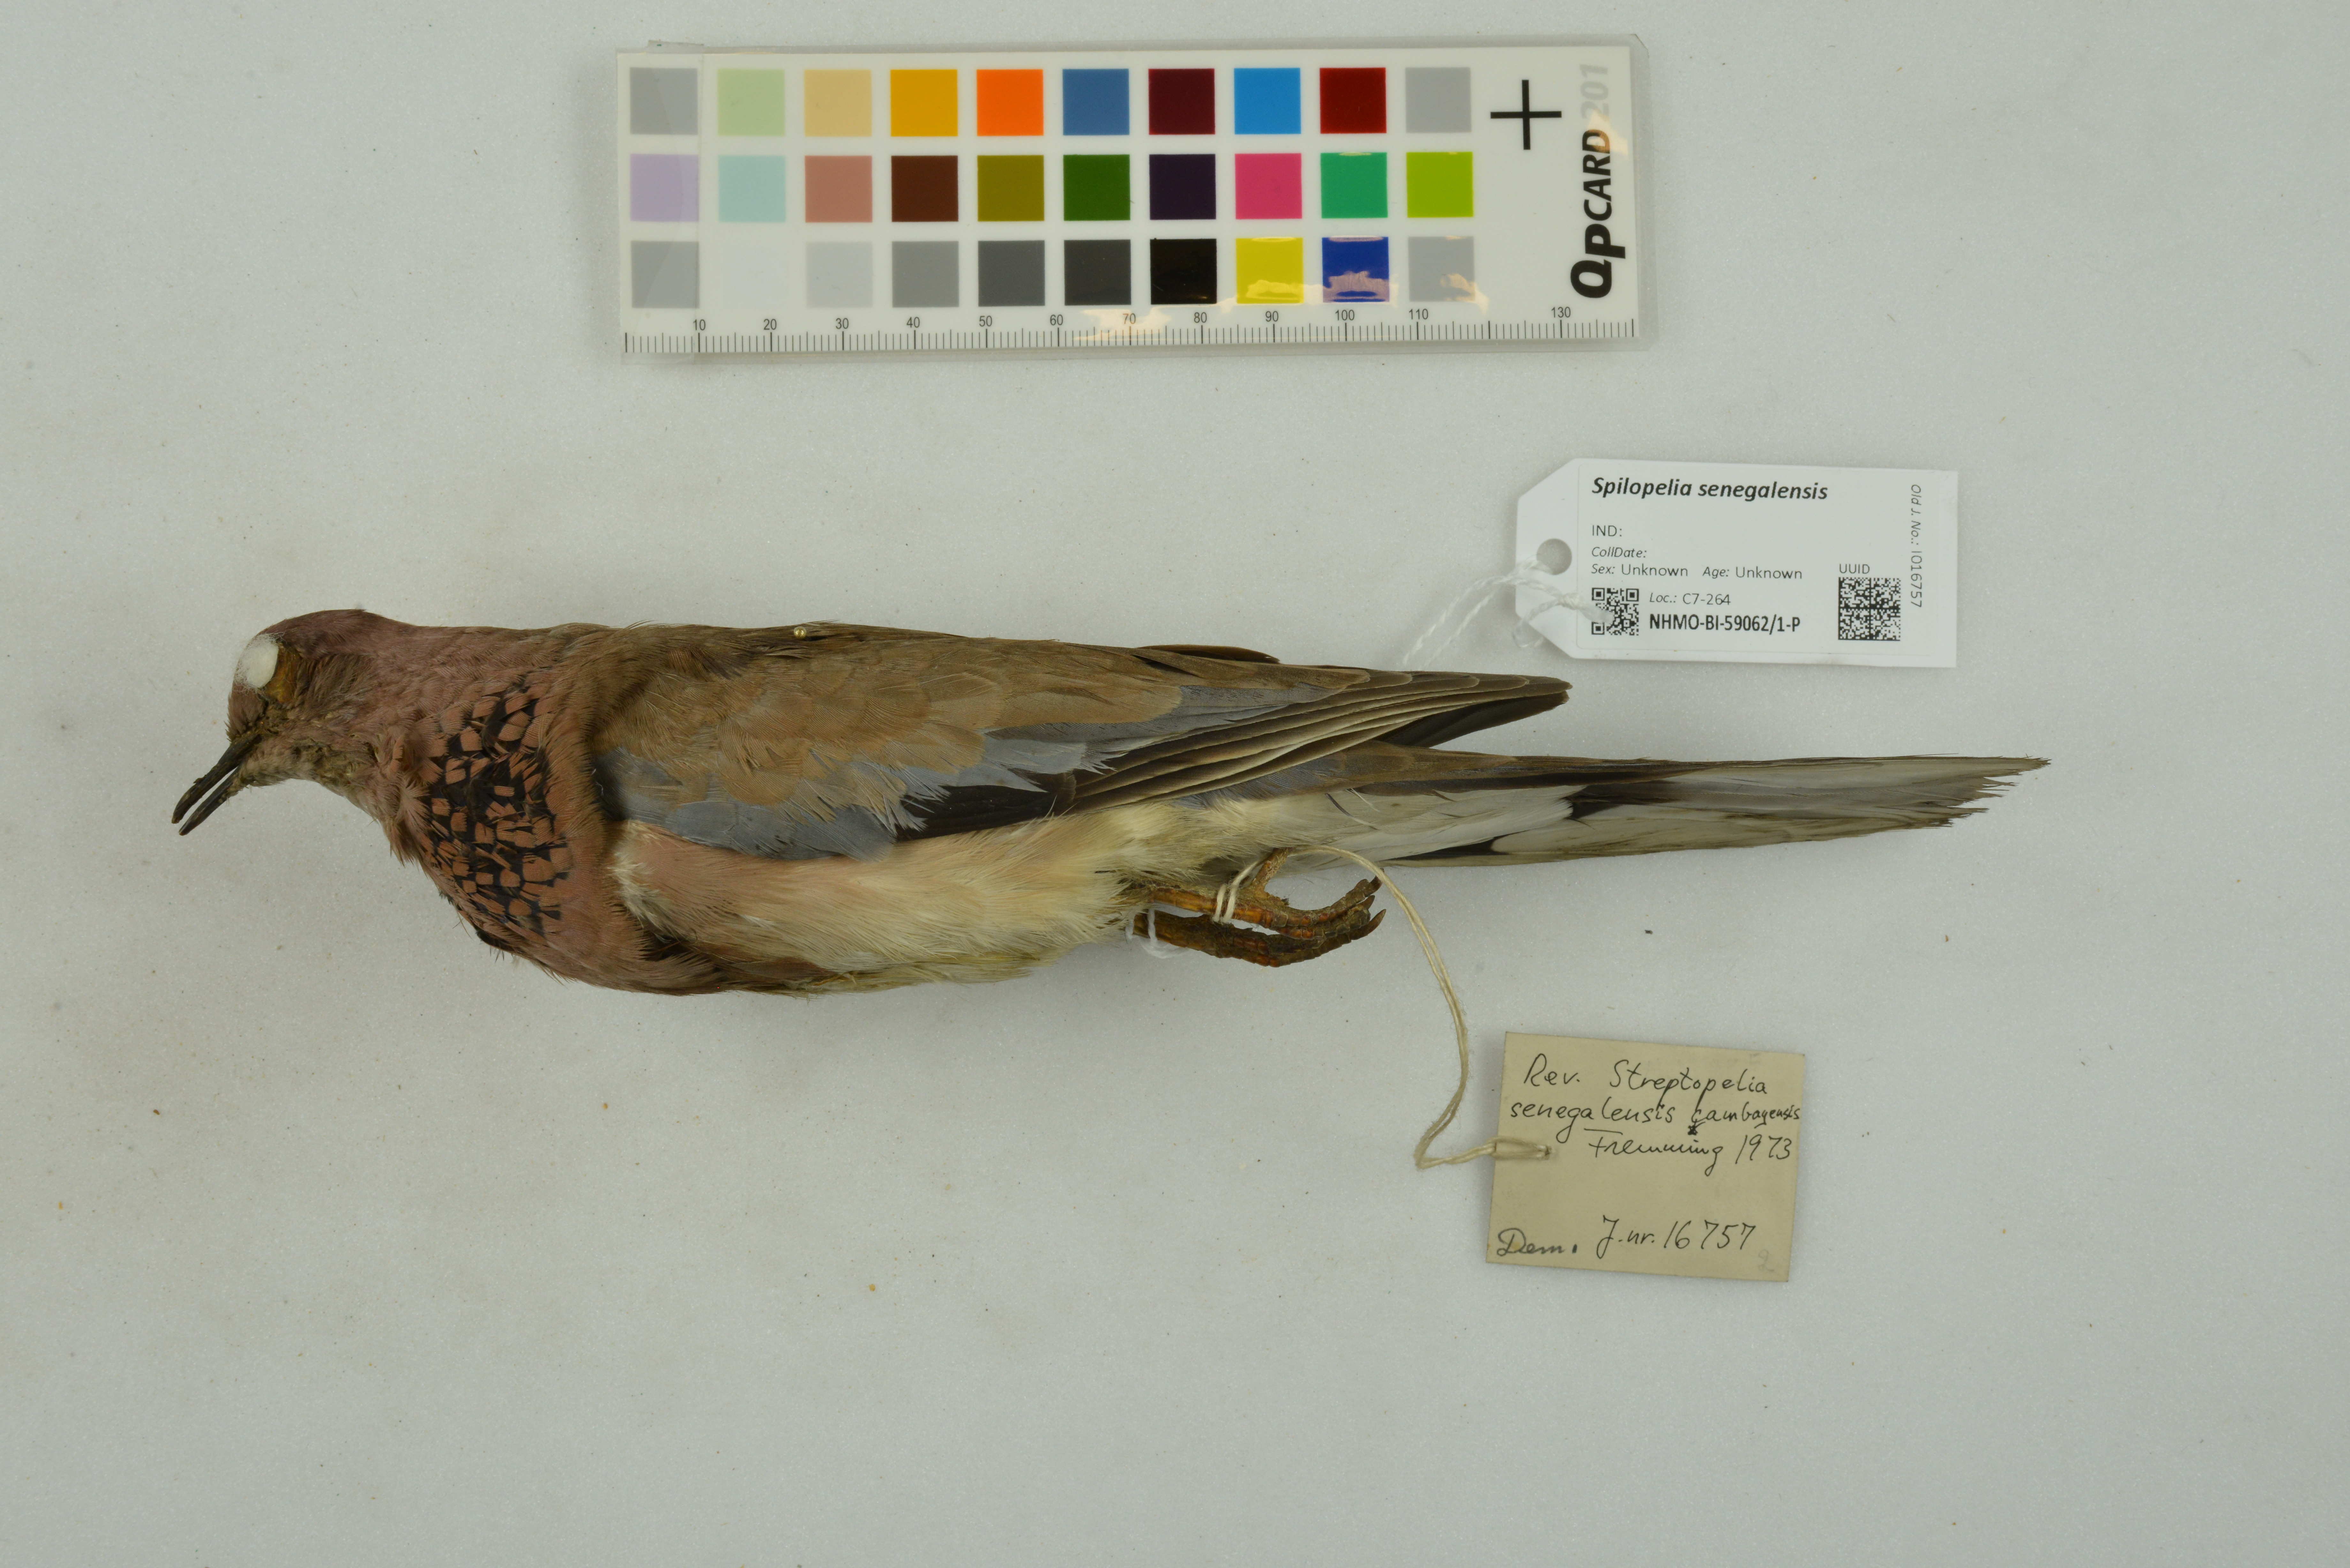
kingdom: Animalia
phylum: Chordata
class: Aves
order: Columbiformes
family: Columbidae
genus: Spilopelia
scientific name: Spilopelia senegalensis
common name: Laughing dove
